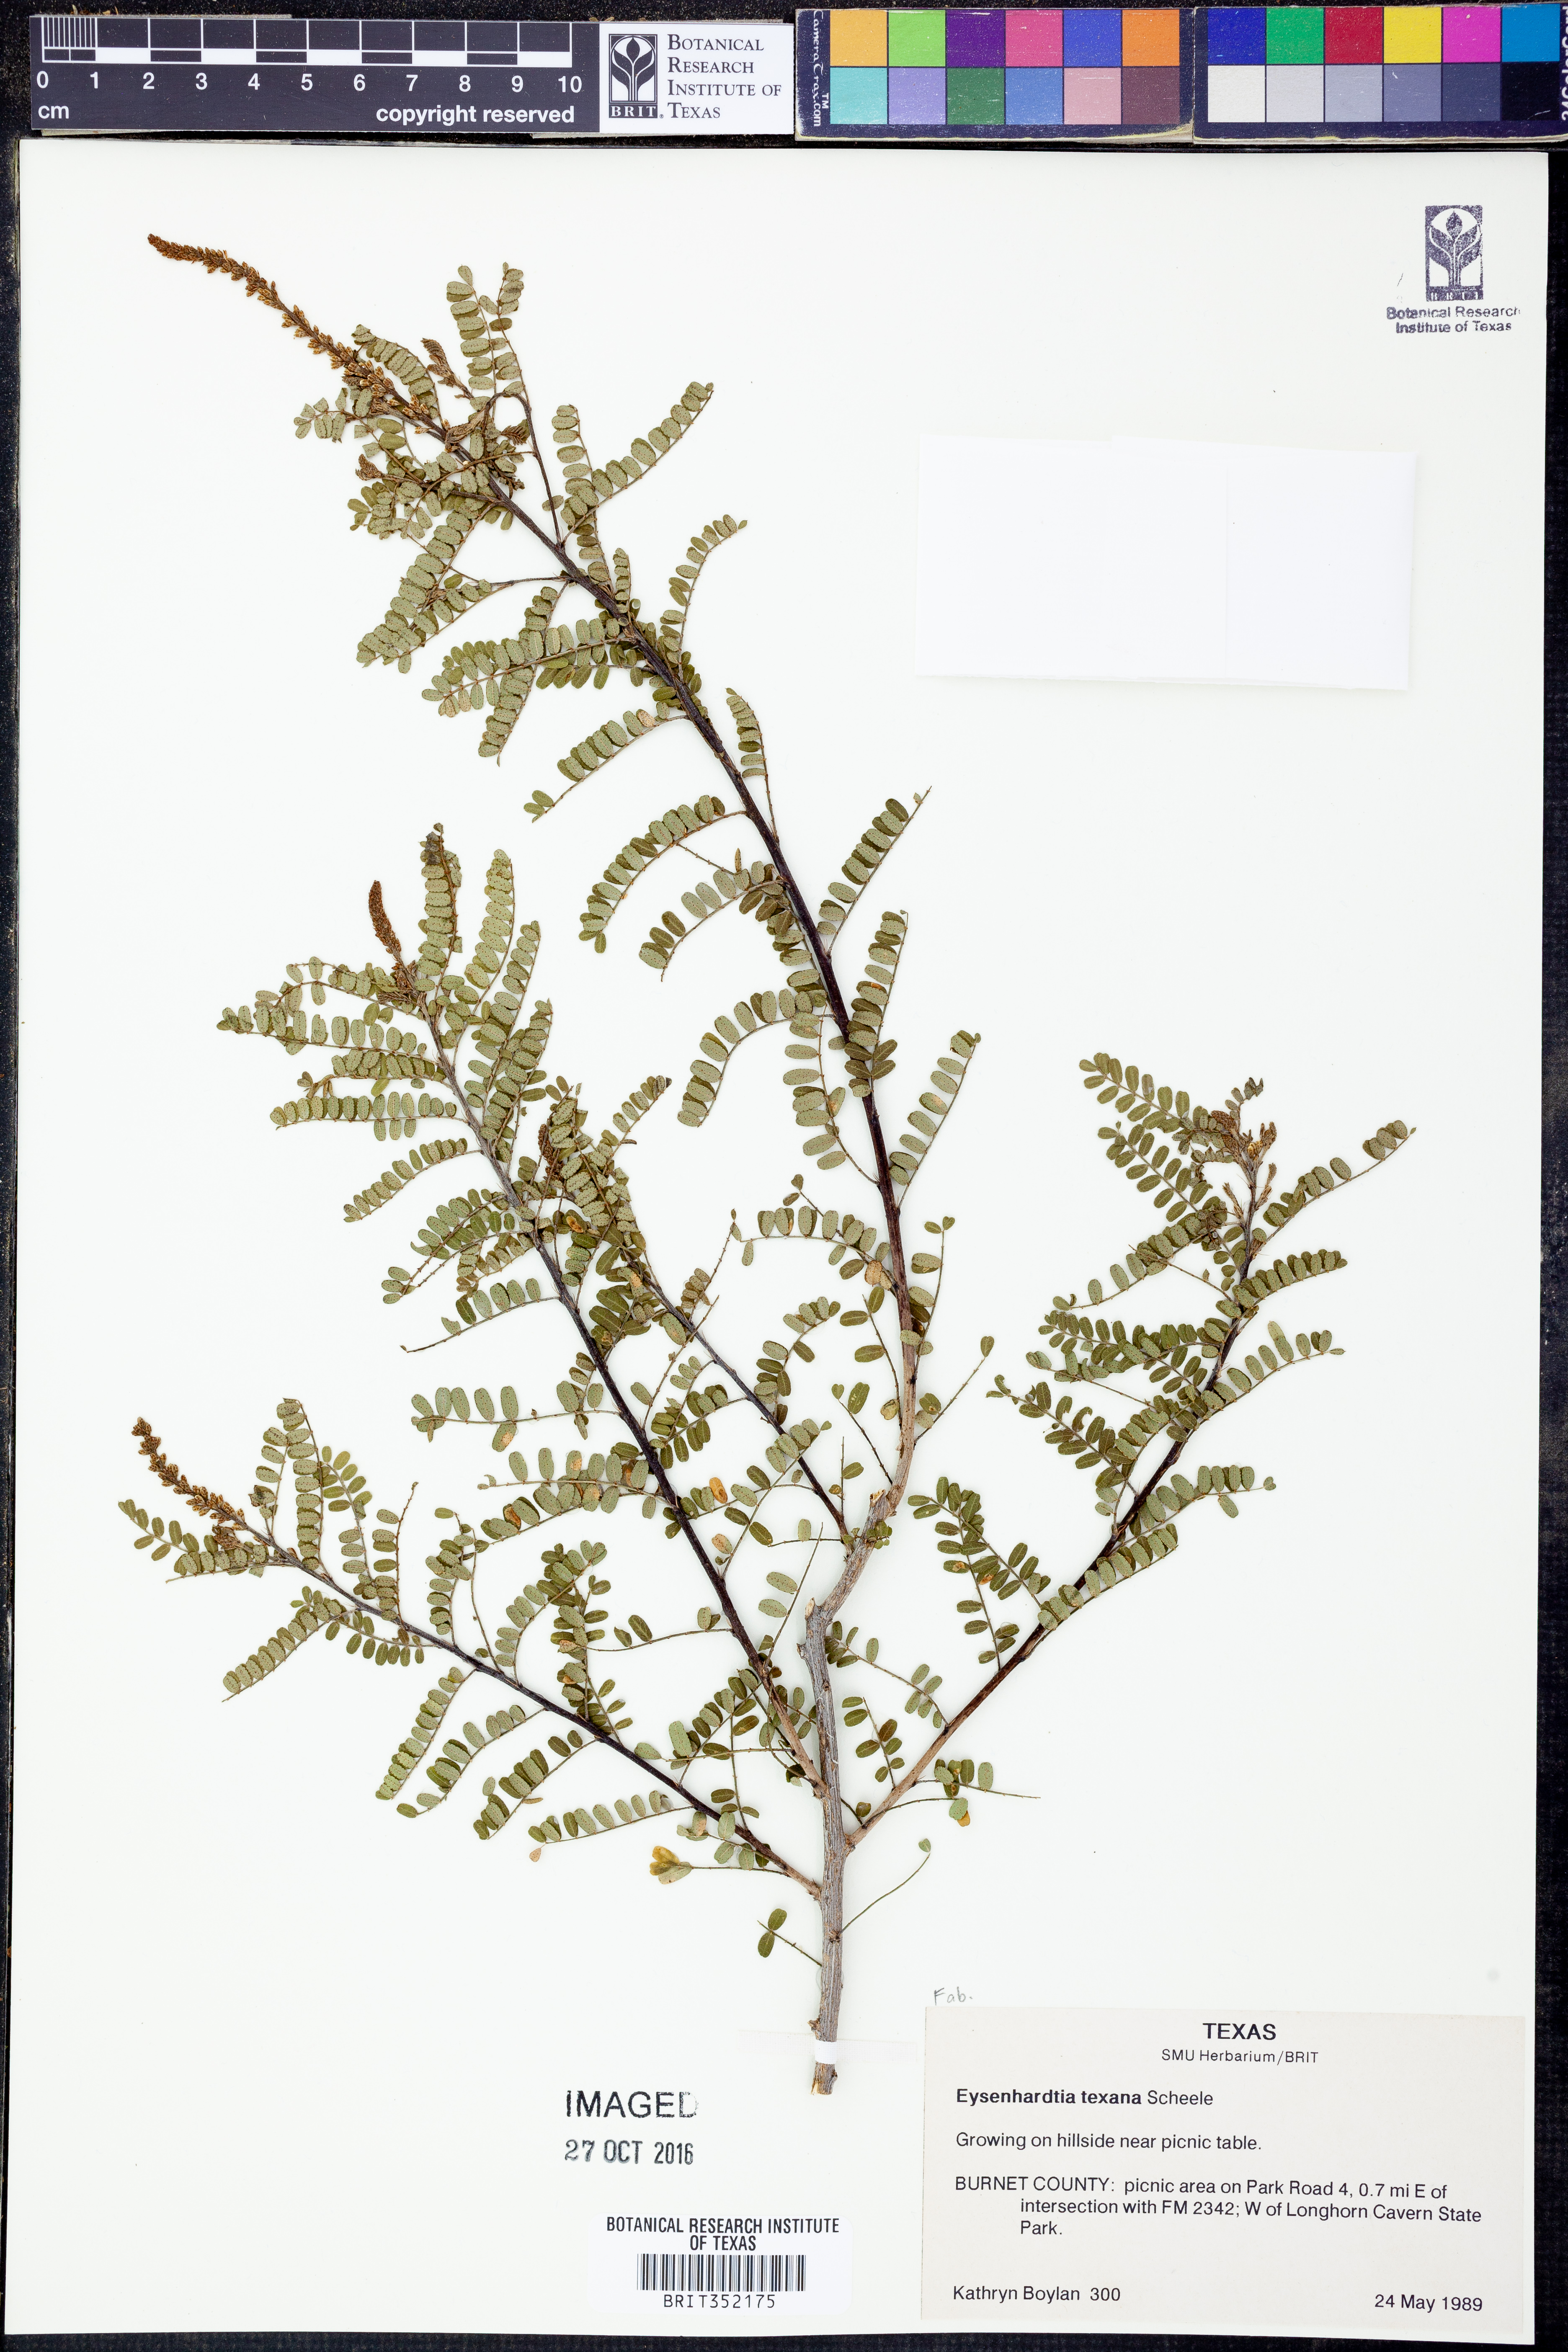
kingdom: Plantae
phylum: Tracheophyta
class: Magnoliopsida
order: Fabales
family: Fabaceae
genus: Eysenhardtia
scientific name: Eysenhardtia texana
